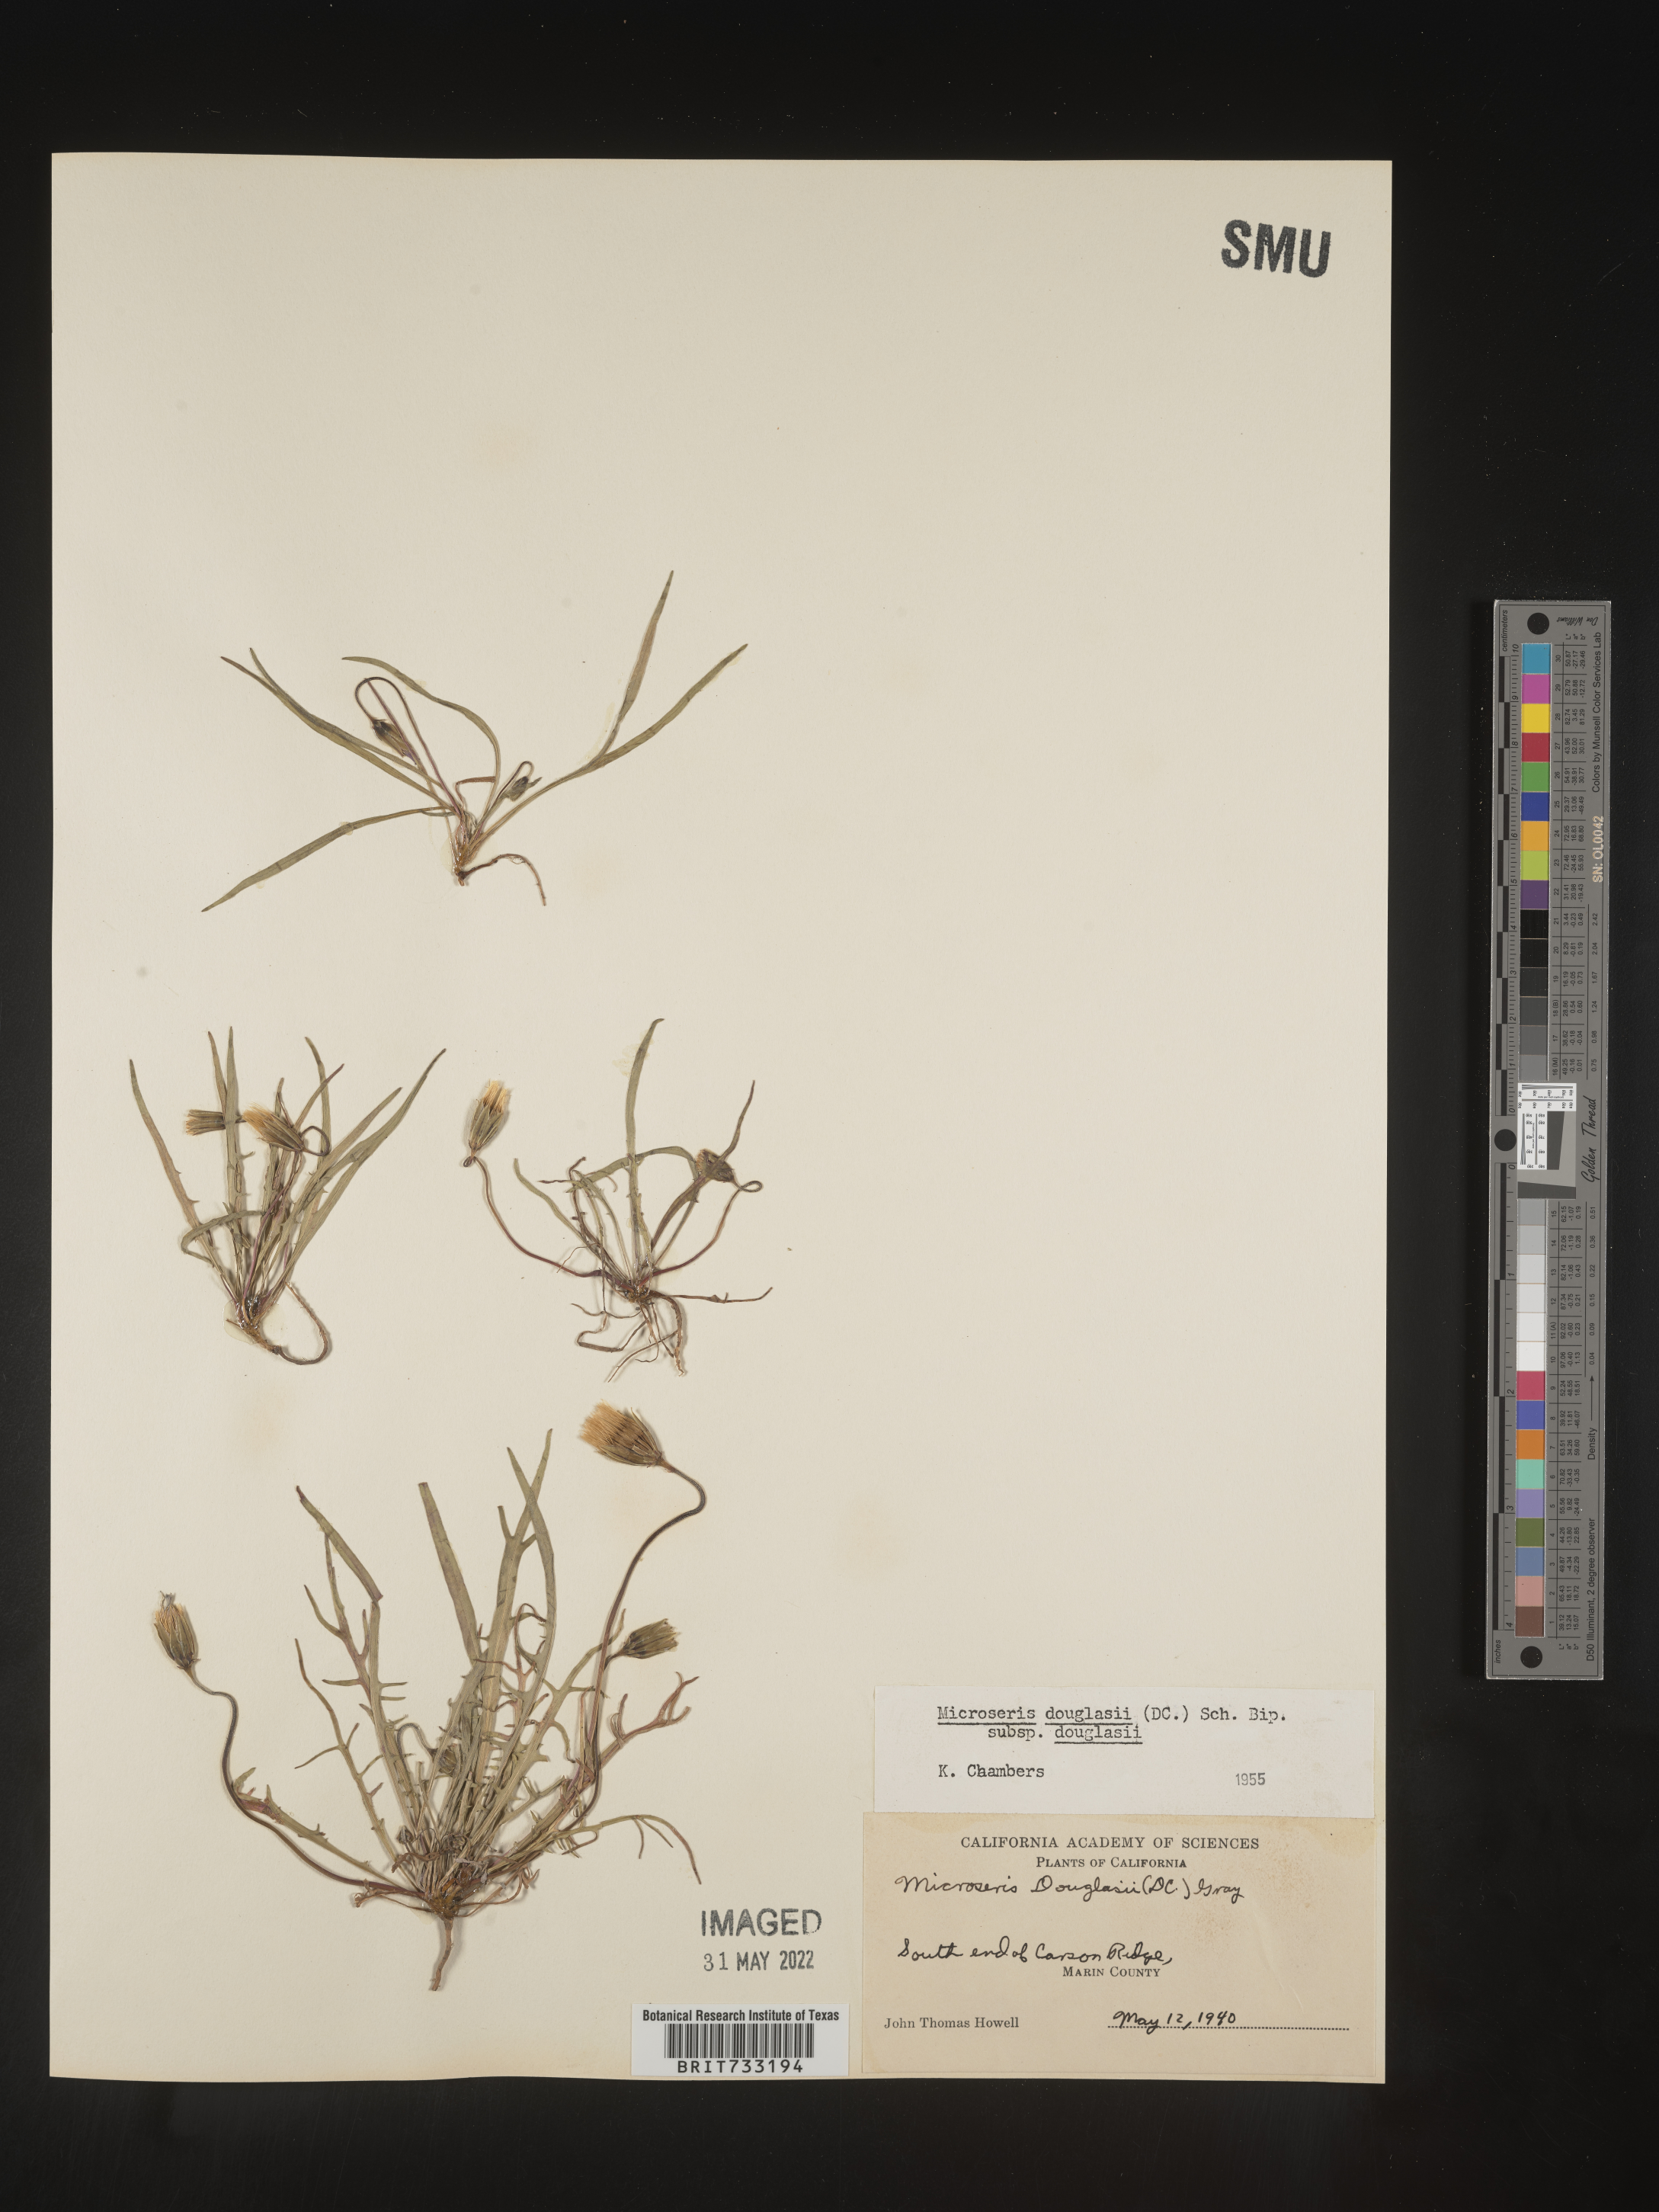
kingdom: Plantae
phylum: Tracheophyta
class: Magnoliopsida
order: Asterales
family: Asteraceae
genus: Microseris
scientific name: Microseris douglasii
